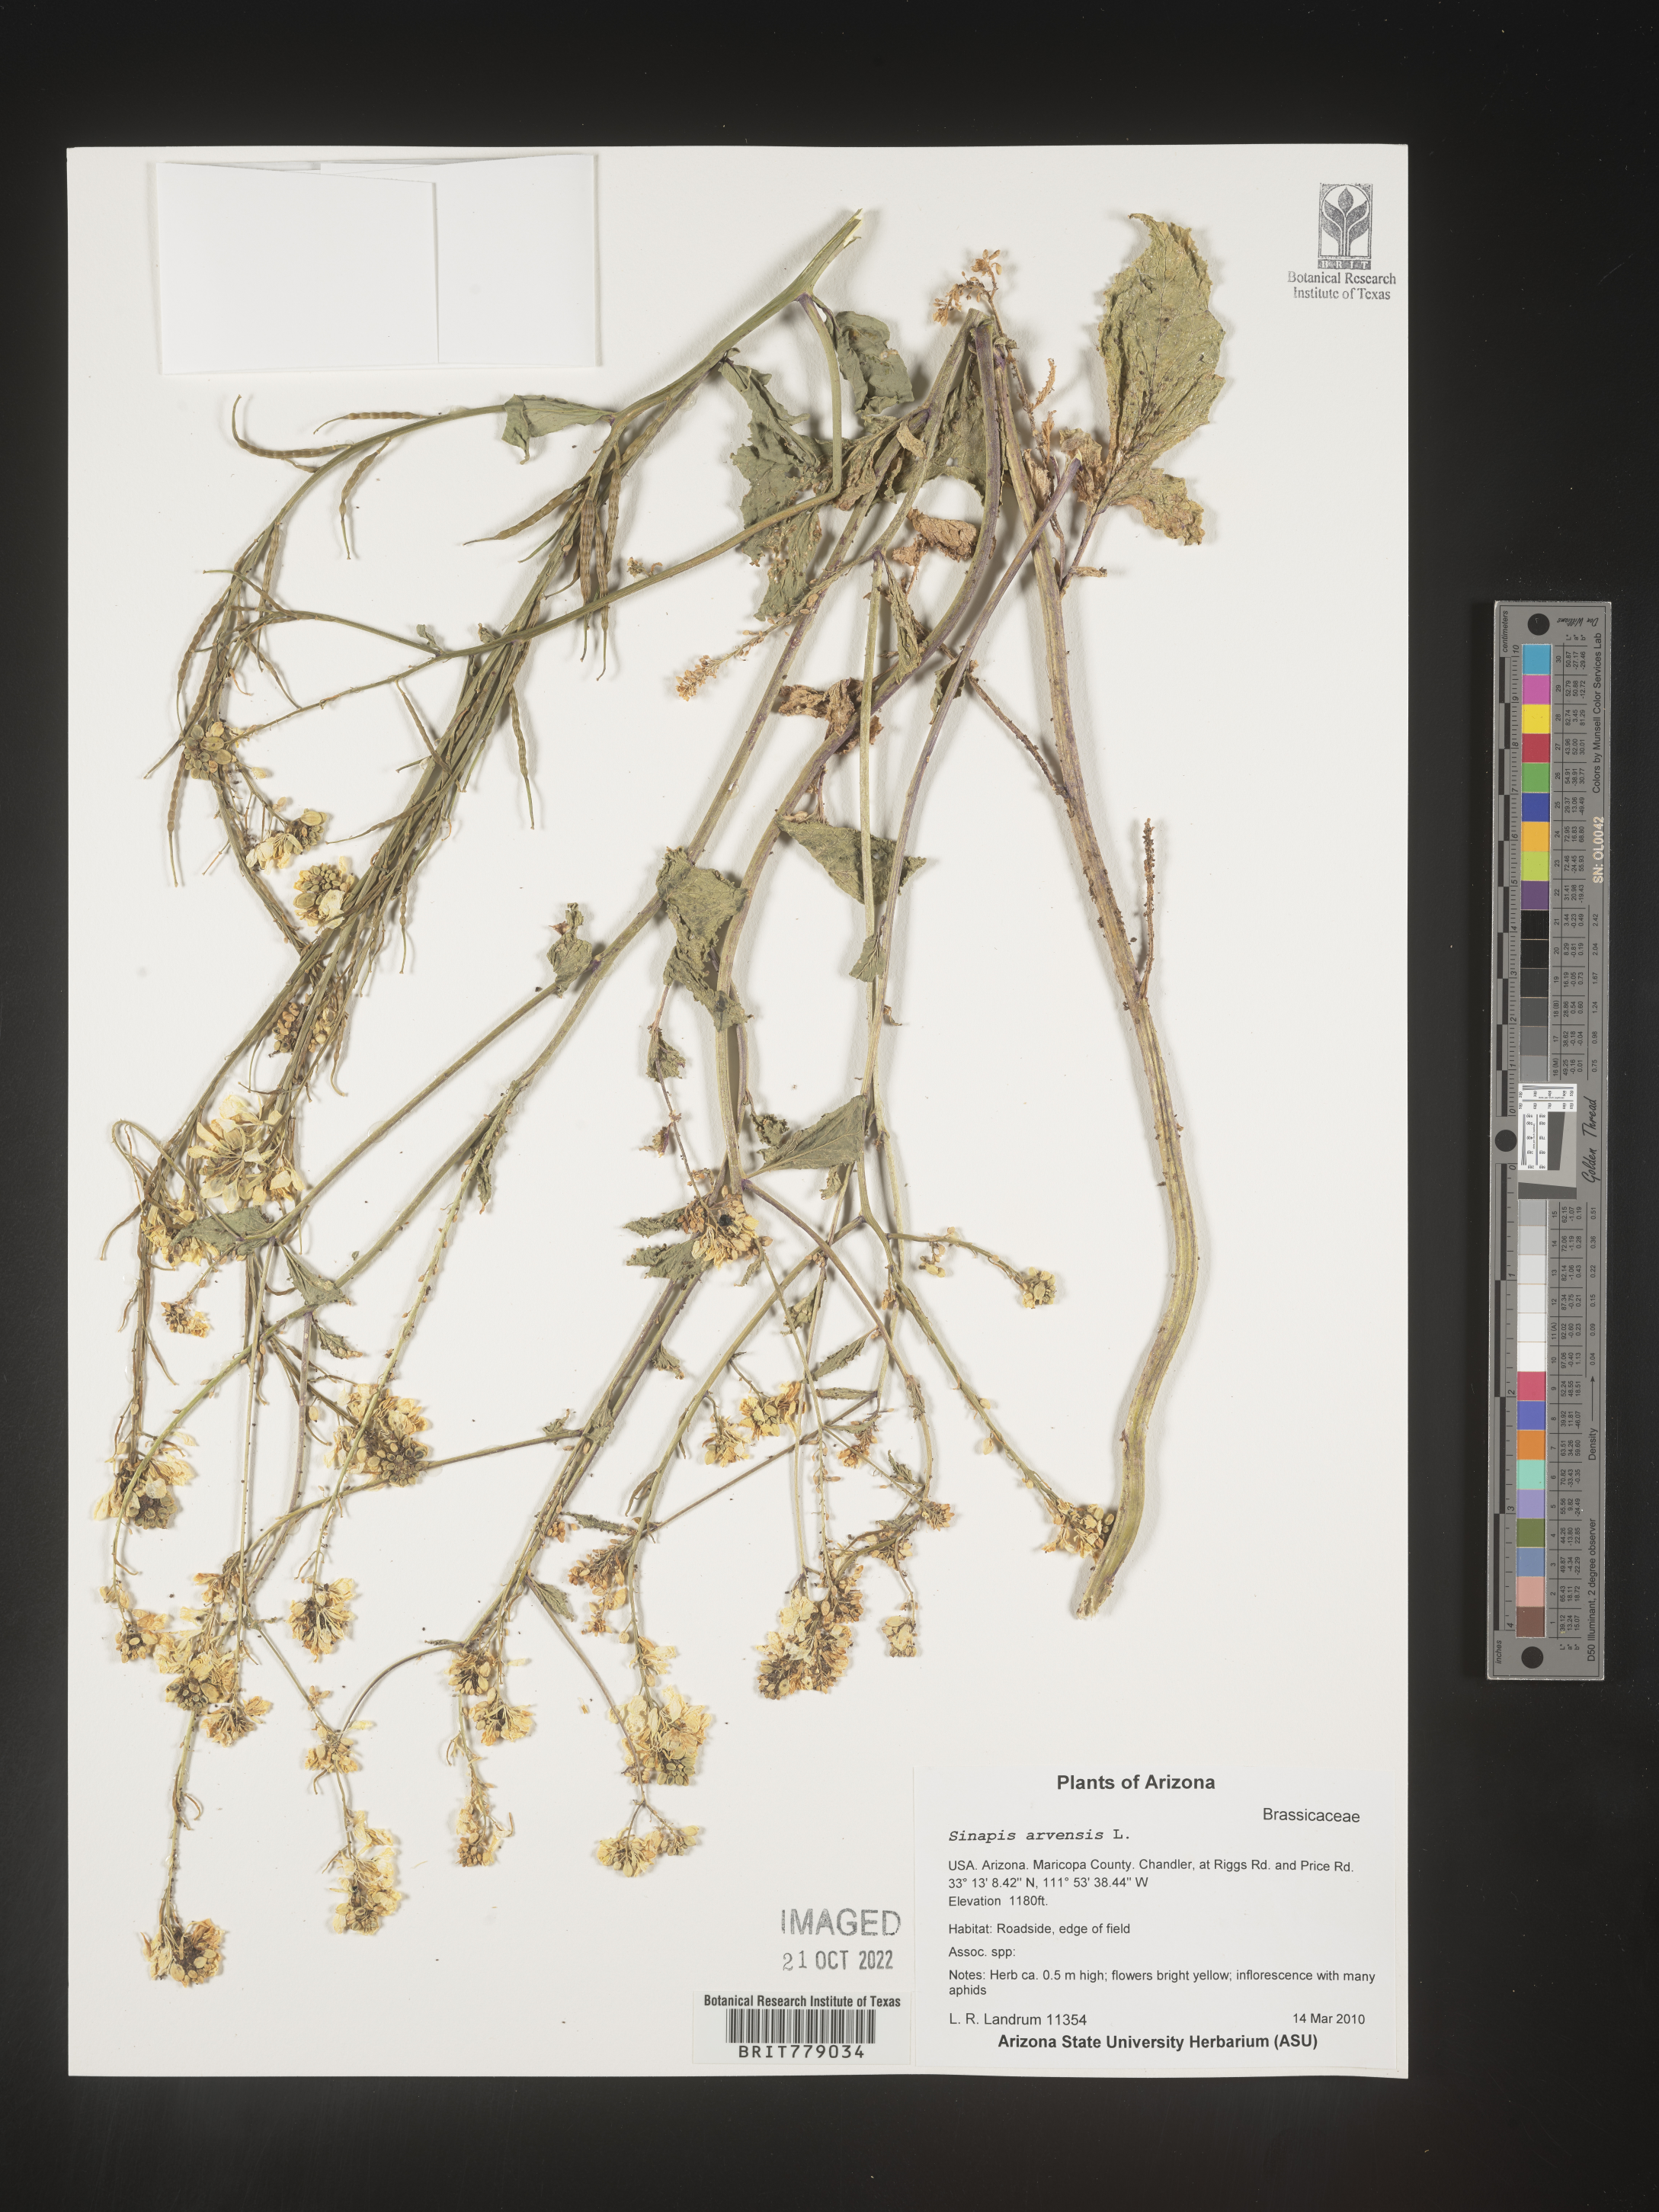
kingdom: Plantae
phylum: Tracheophyta
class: Magnoliopsida
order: Brassicales
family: Brassicaceae
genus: Sinapis
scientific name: Sinapis
